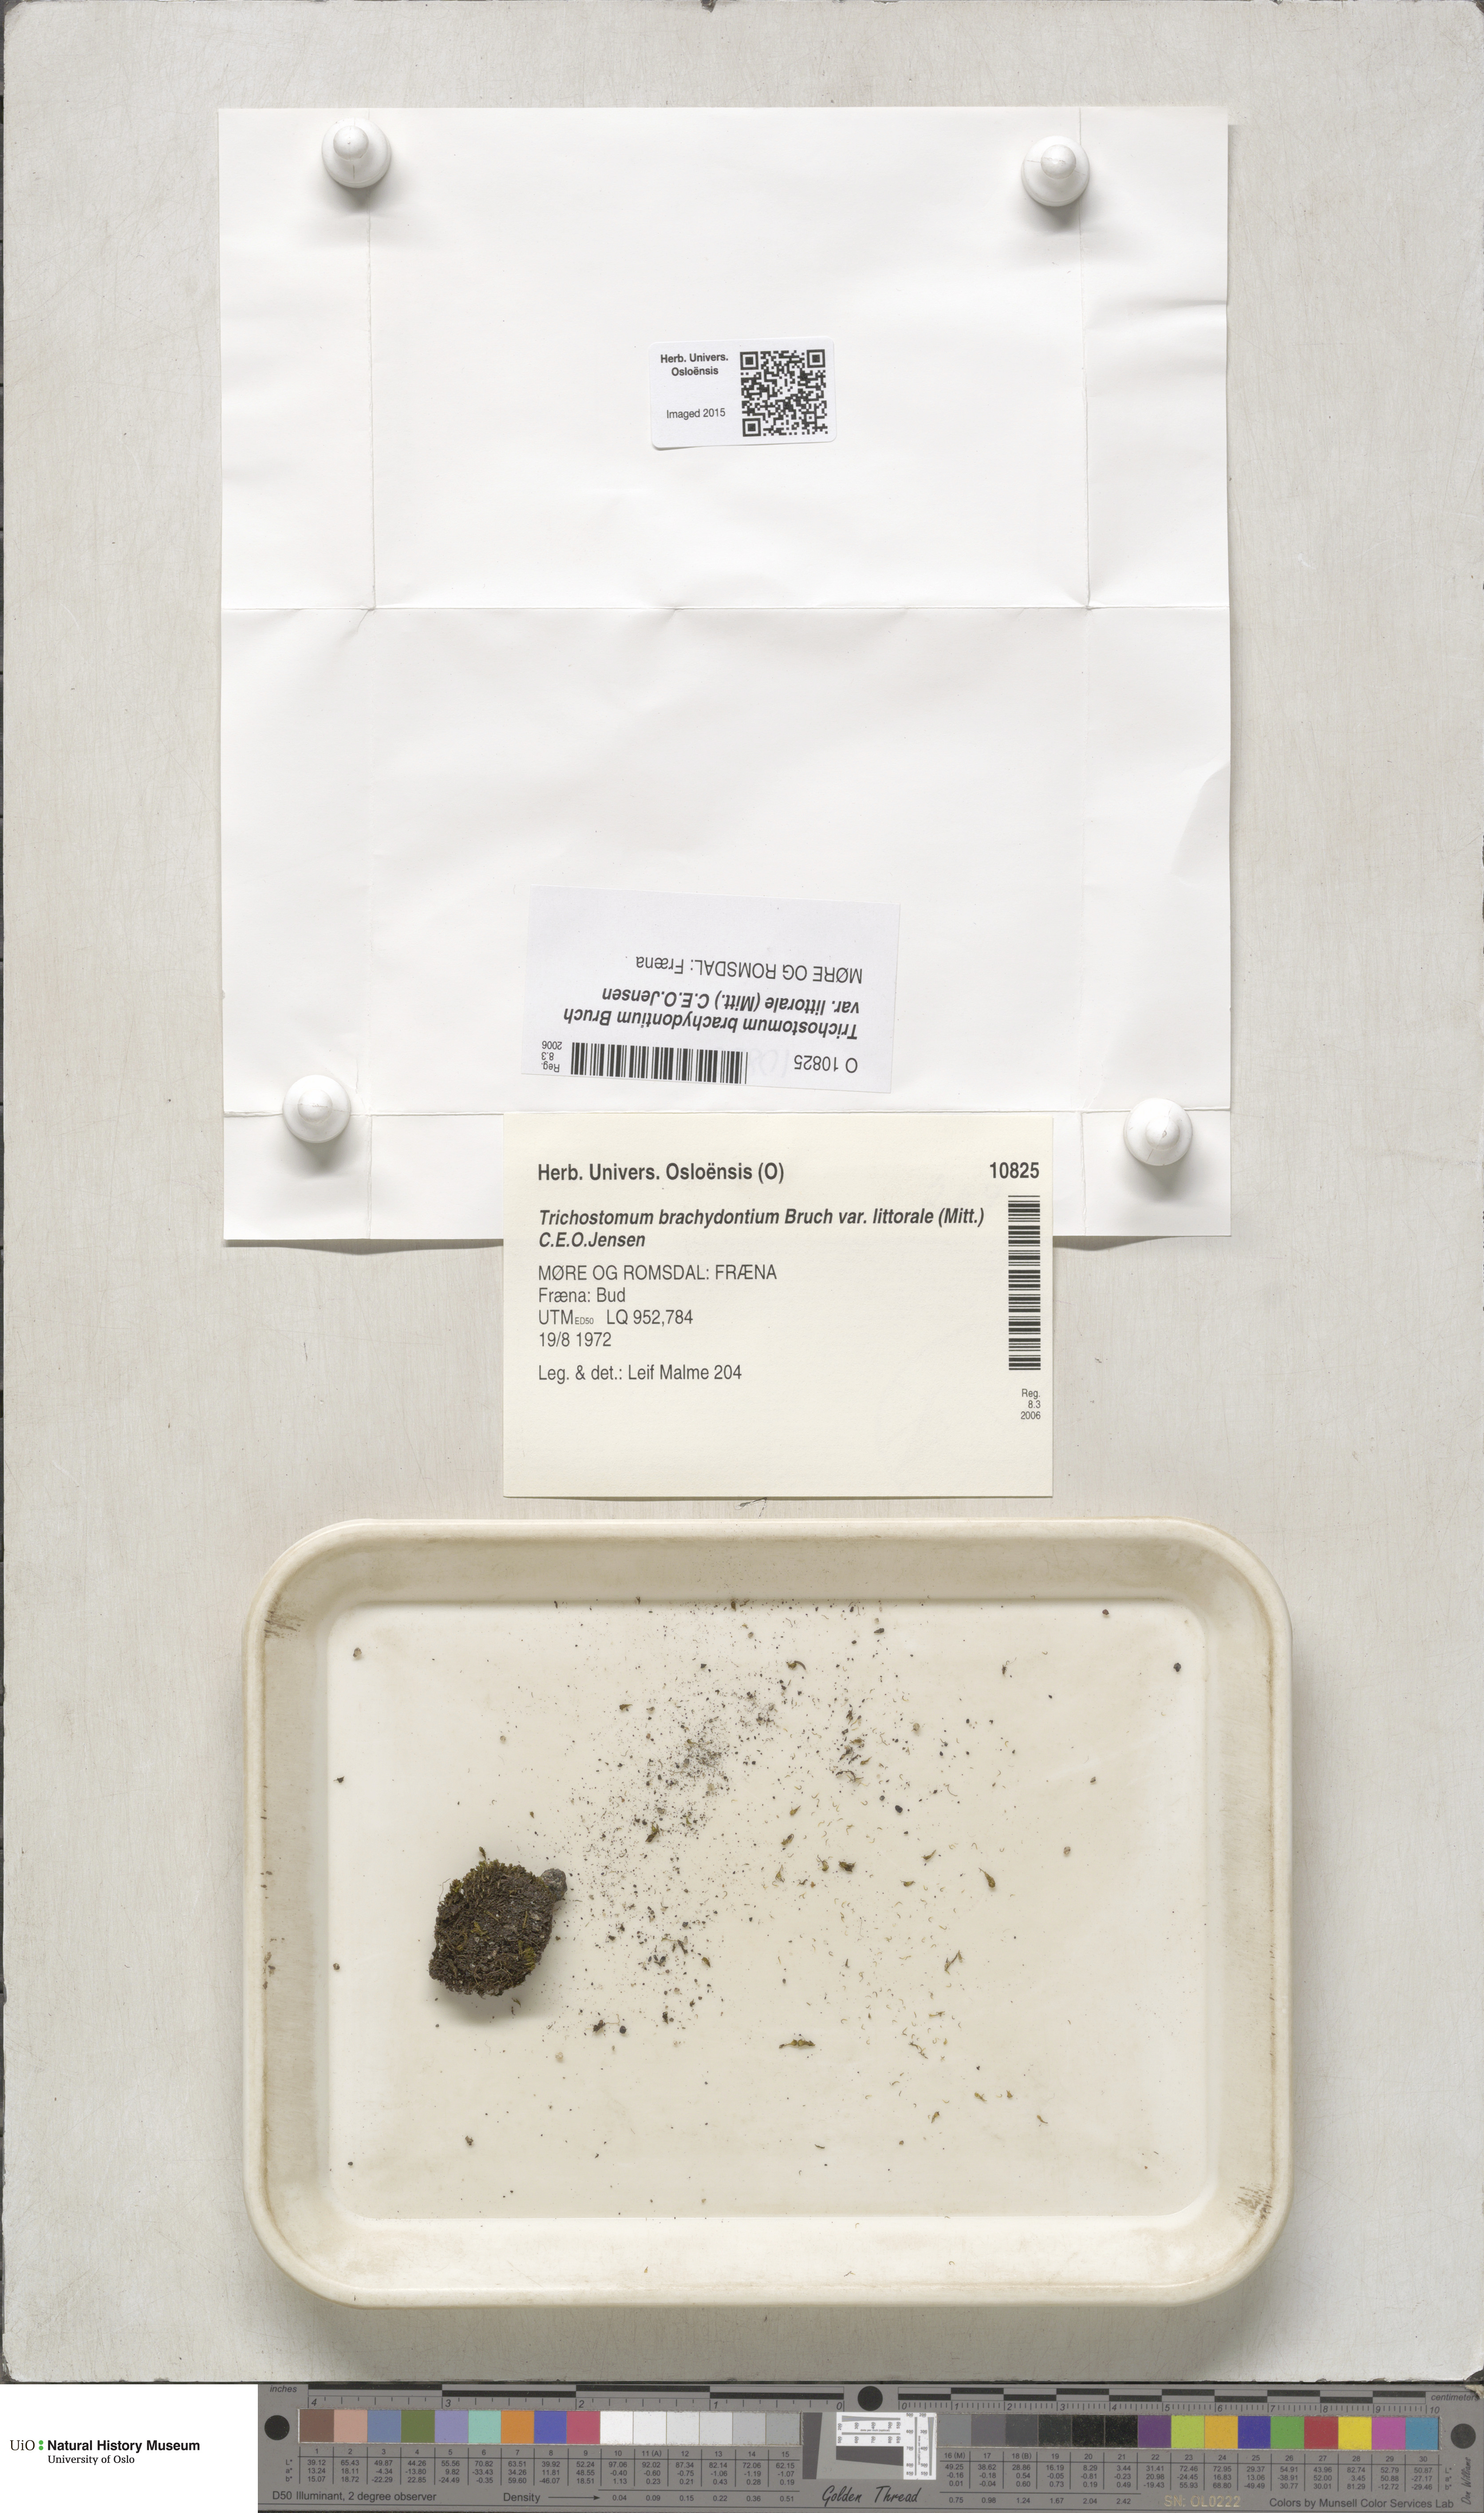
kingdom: Plantae
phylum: Bryophyta
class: Bryopsida
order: Pottiales
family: Pottiaceae
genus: Trichostomum
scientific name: Trichostomum littorale
